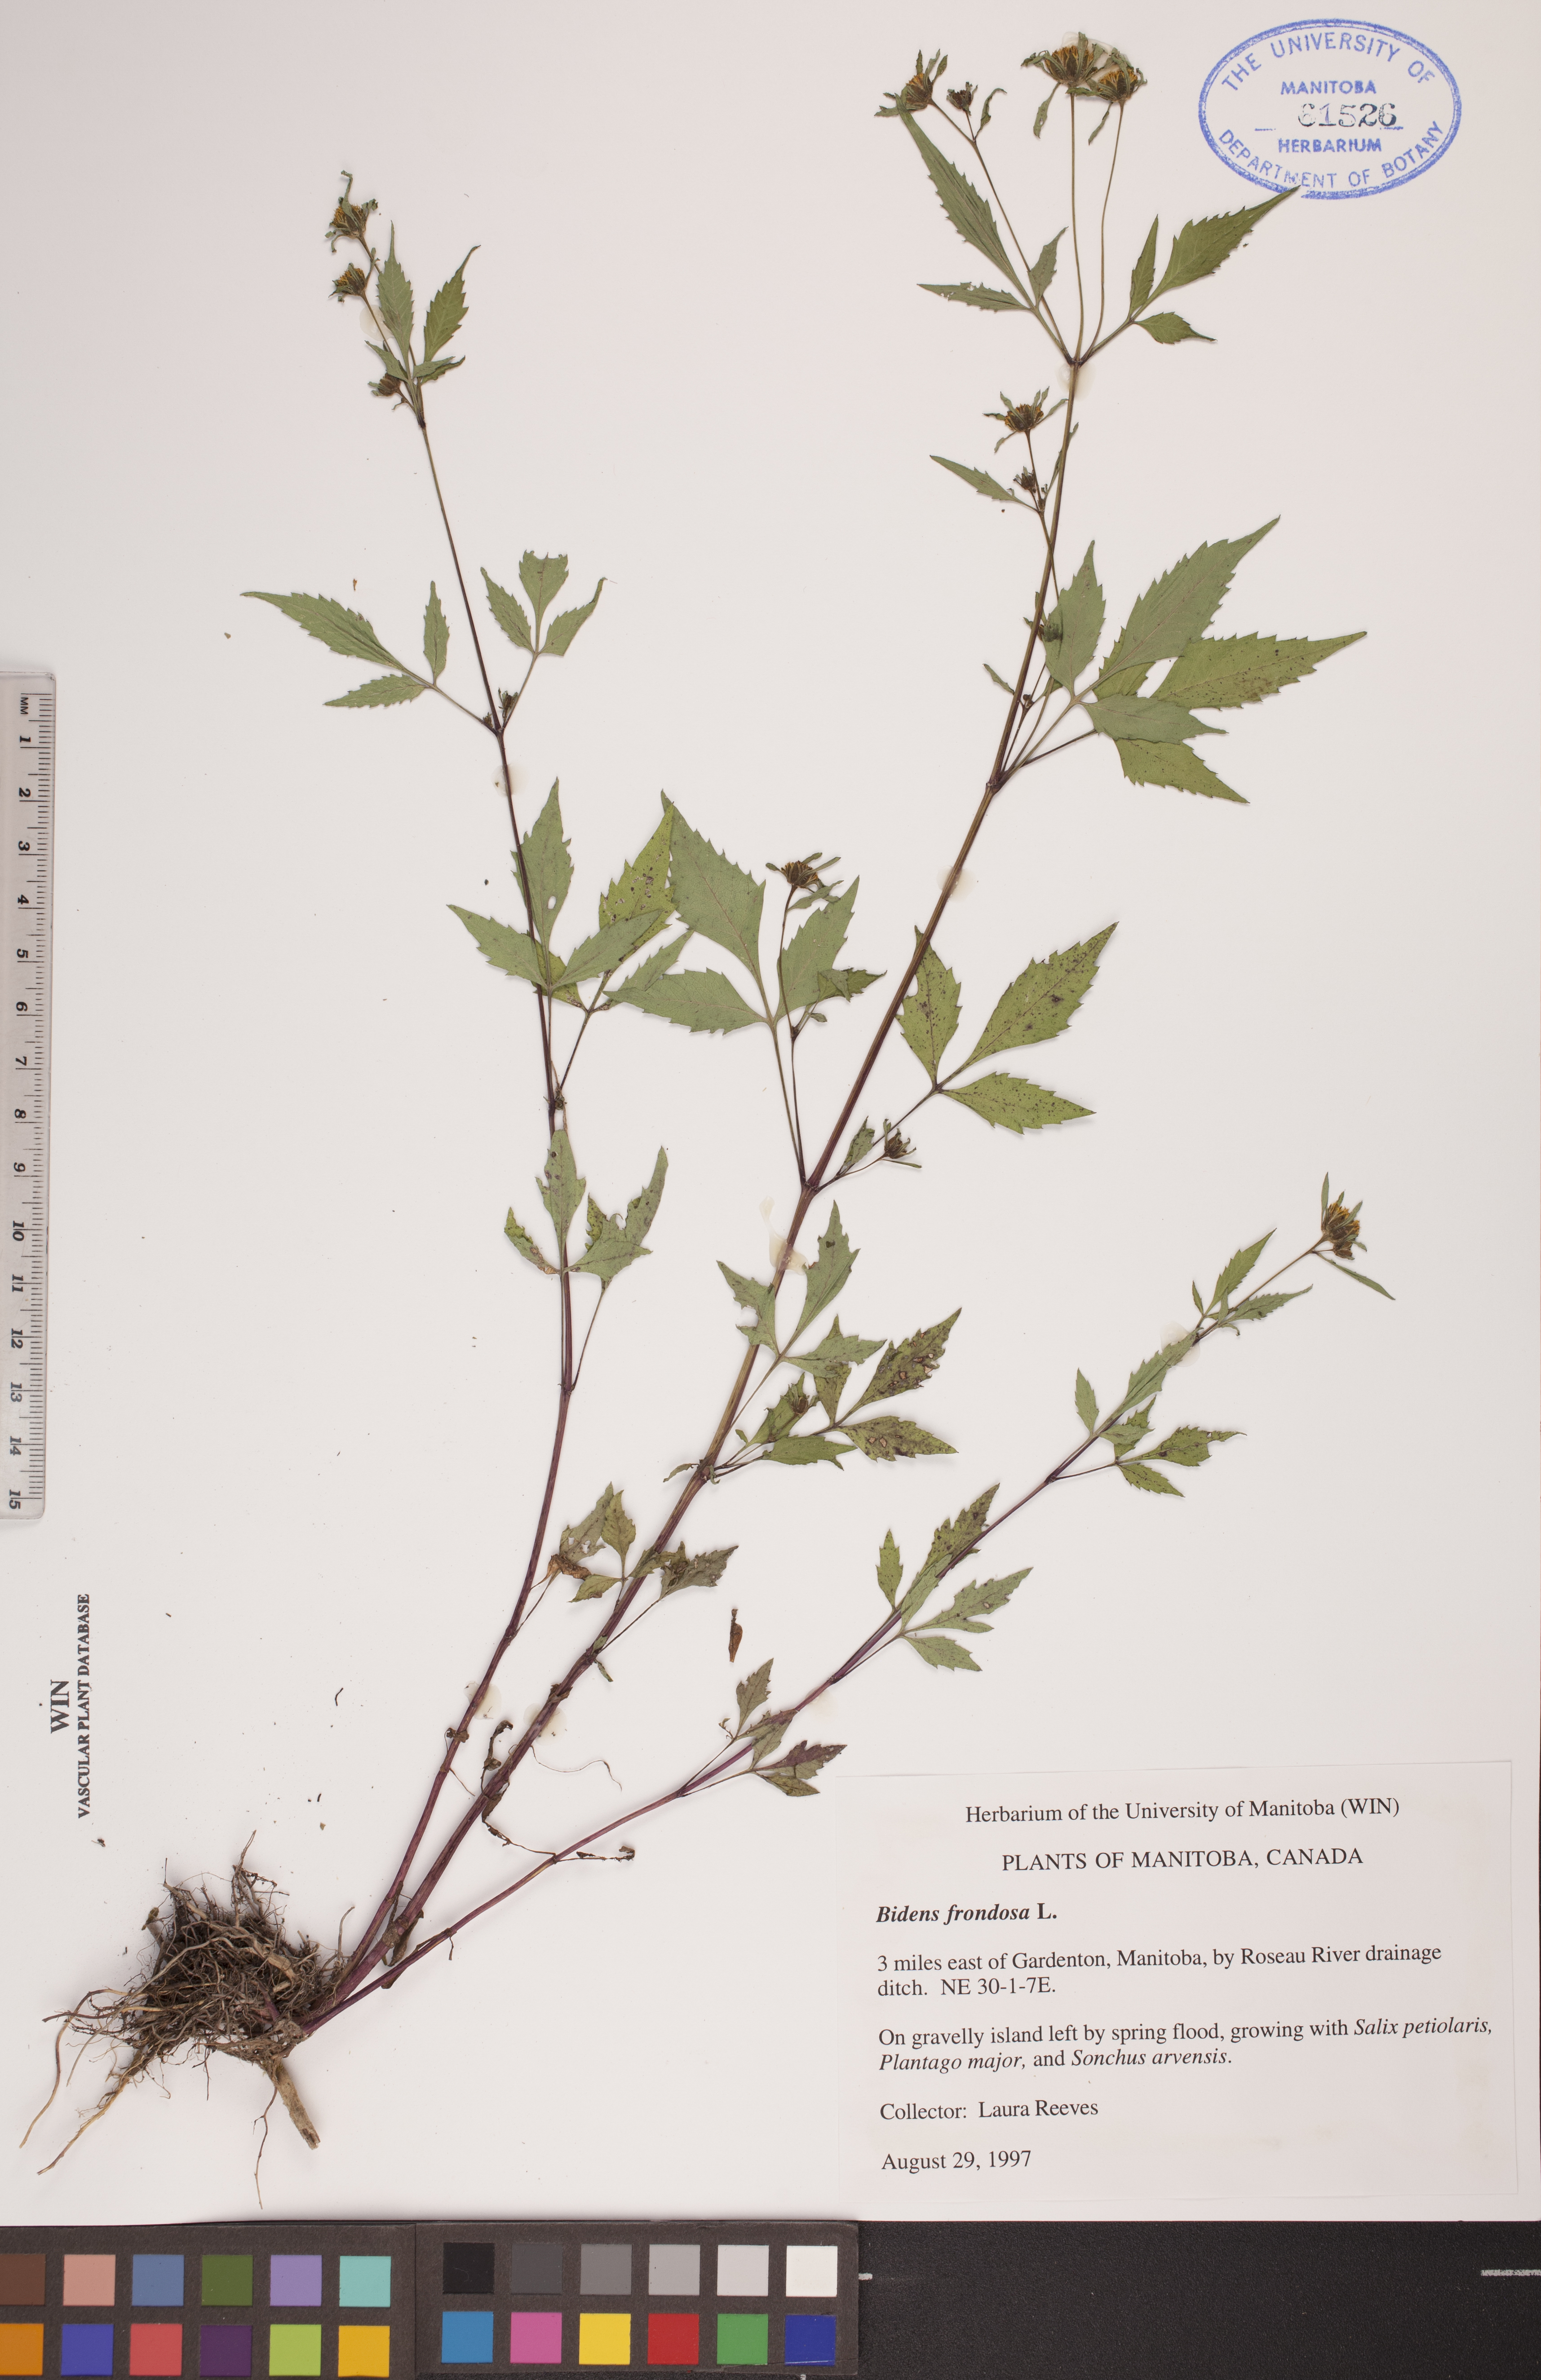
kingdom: Plantae
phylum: Tracheophyta
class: Magnoliopsida
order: Asterales
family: Asteraceae
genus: Bidens
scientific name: Bidens frondosa
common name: Beggarticks
